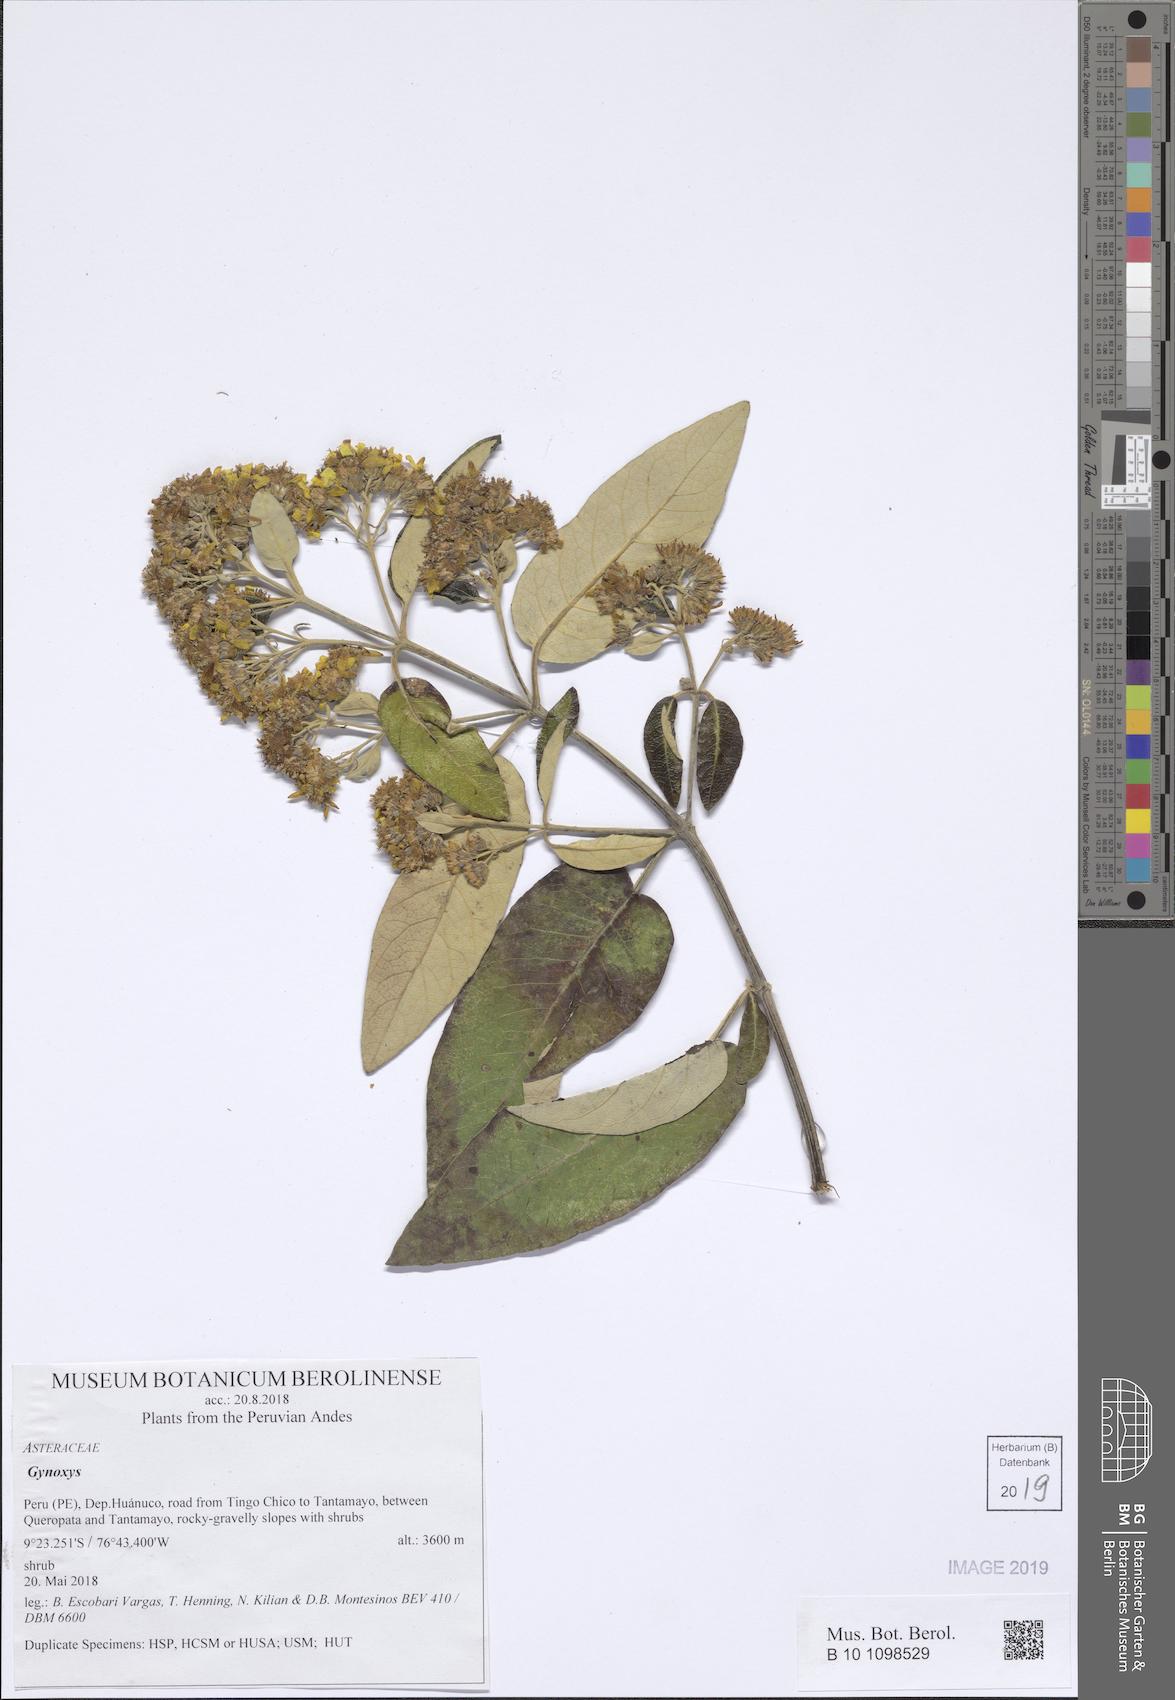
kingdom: Plantae
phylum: Tracheophyta
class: Magnoliopsida
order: Asterales
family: Asteraceae
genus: Gynoxys
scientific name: Gynoxys
